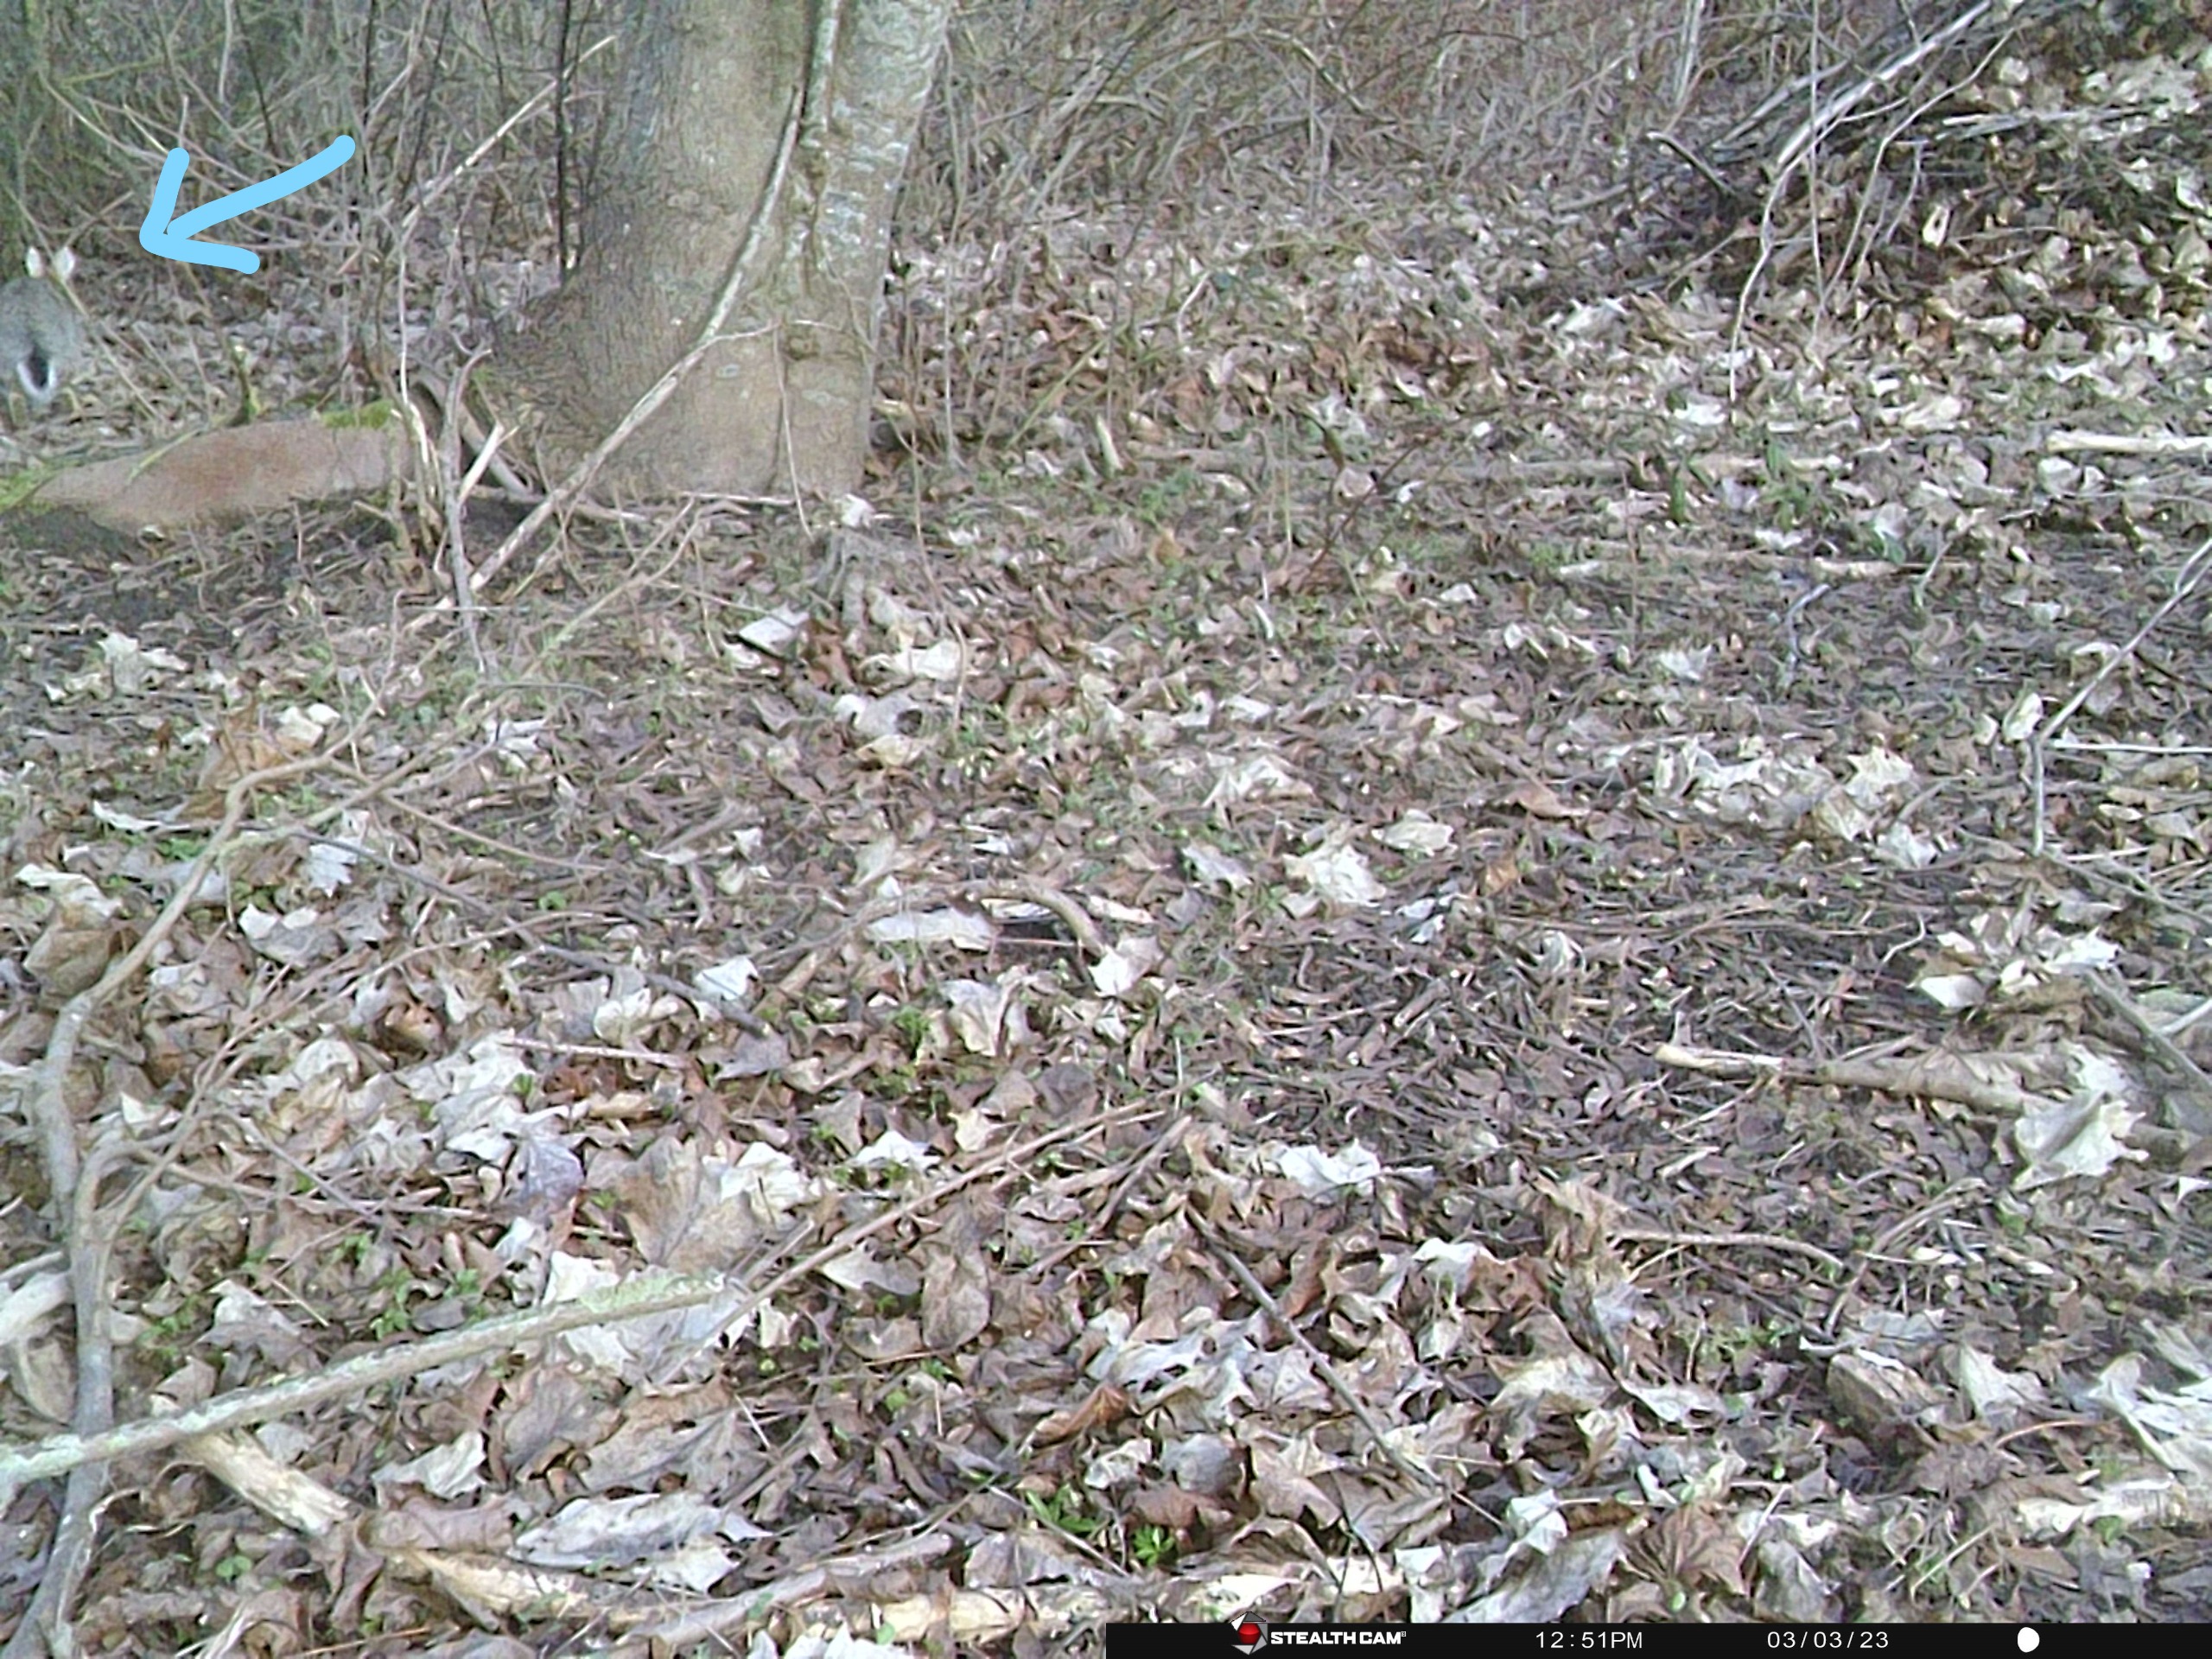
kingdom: Animalia
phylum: Chordata
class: Mammalia
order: Lagomorpha
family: Leporidae
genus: Lepus
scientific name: Lepus europaeus
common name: Hare
